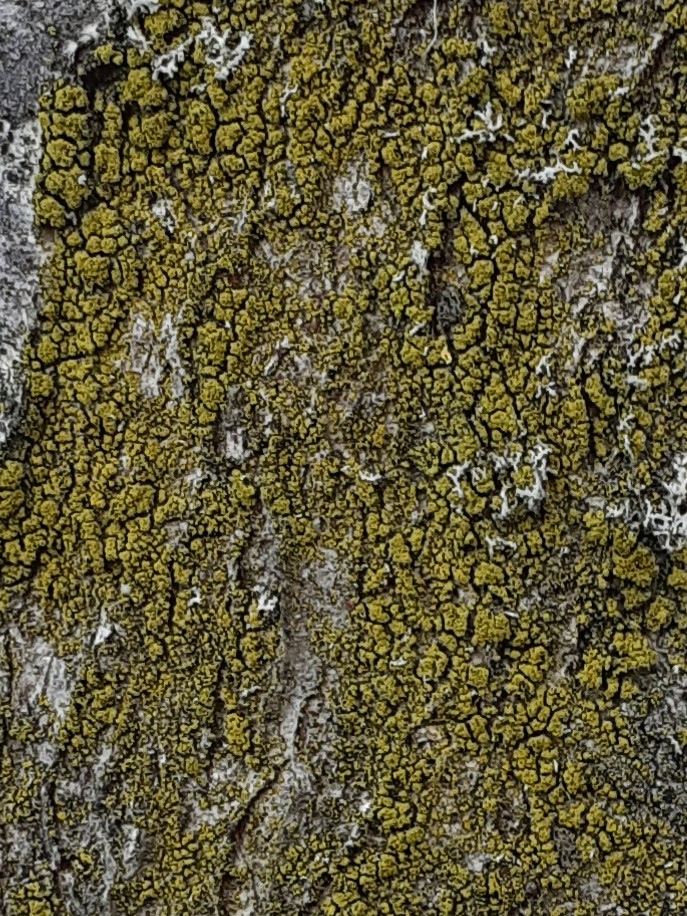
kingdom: Fungi
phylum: Ascomycota
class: Candelariomycetes
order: Candelariales
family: Candelariaceae
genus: Candelaria
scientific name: Candelaria pacifica
